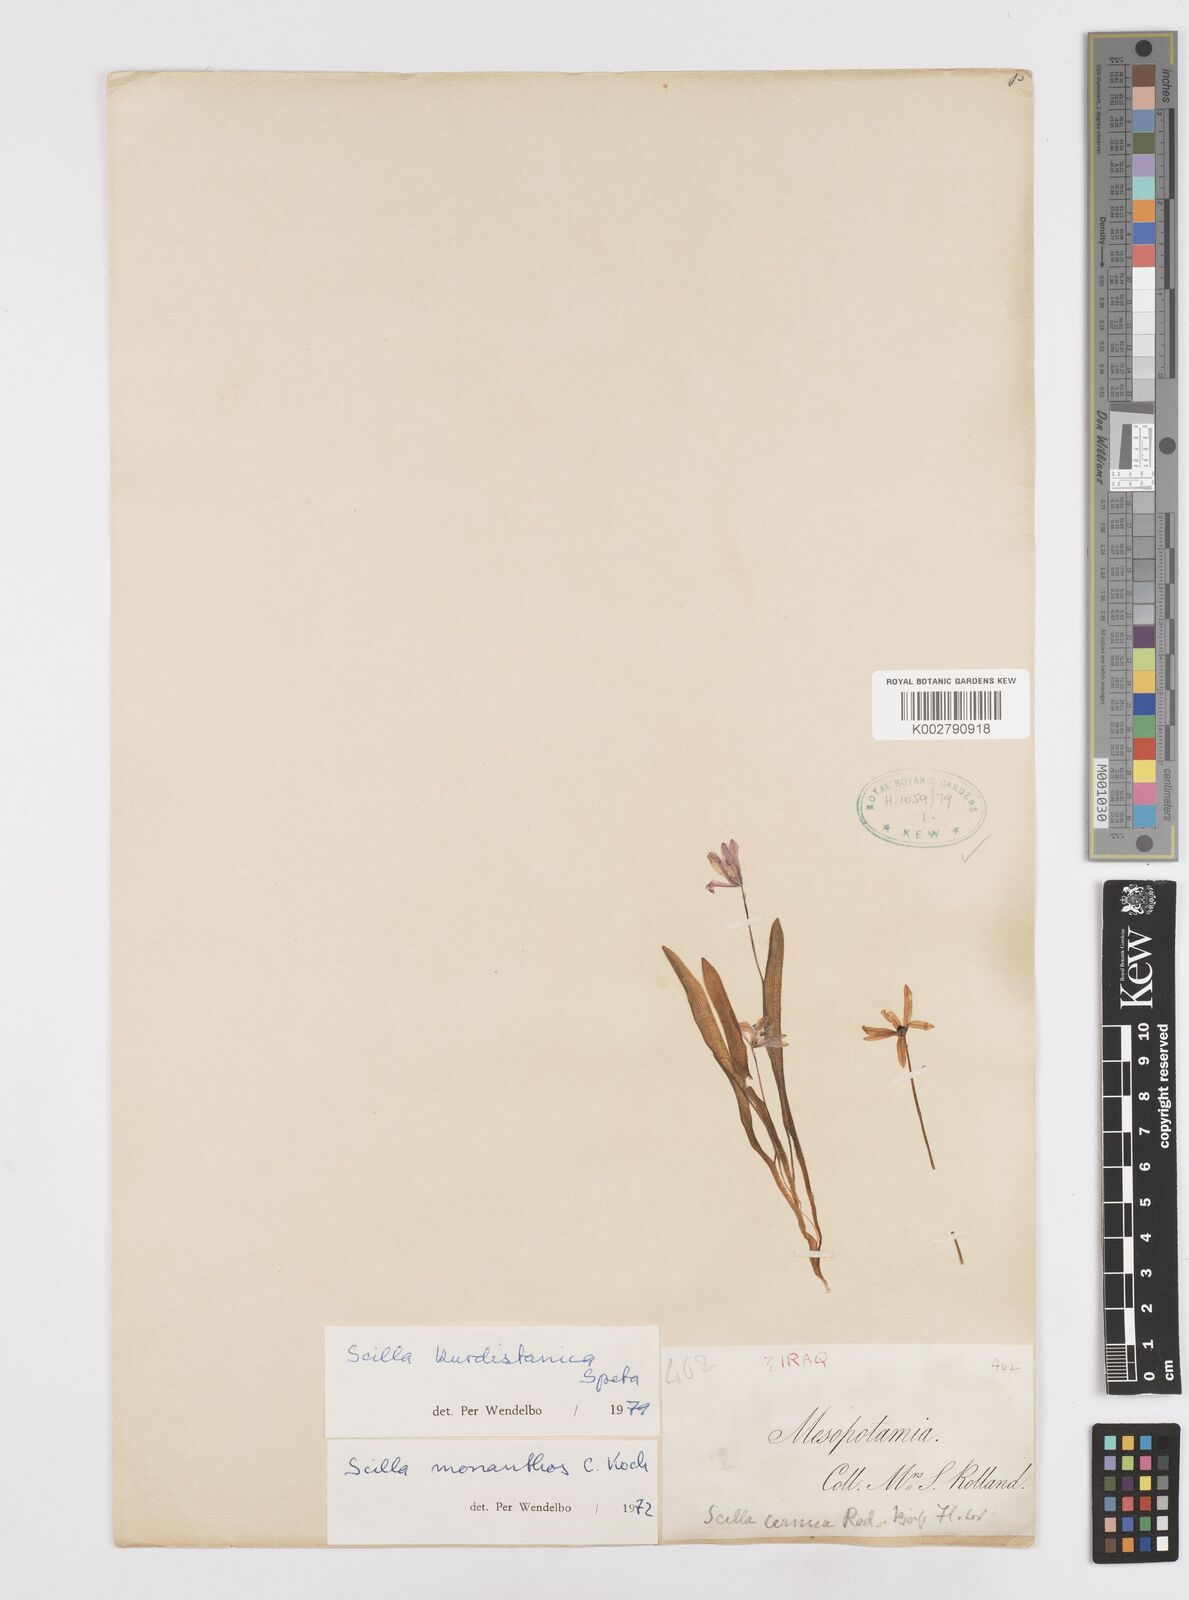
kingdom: Plantae
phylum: Tracheophyta
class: Liliopsida
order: Asparagales
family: Asparagaceae
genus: Scilla
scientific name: Scilla kurdistanica
